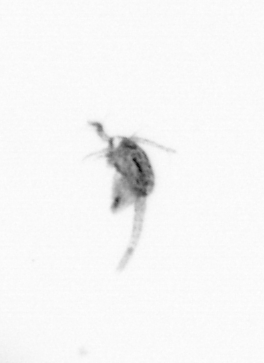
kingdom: Animalia
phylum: Arthropoda
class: Copepoda
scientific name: Copepoda
